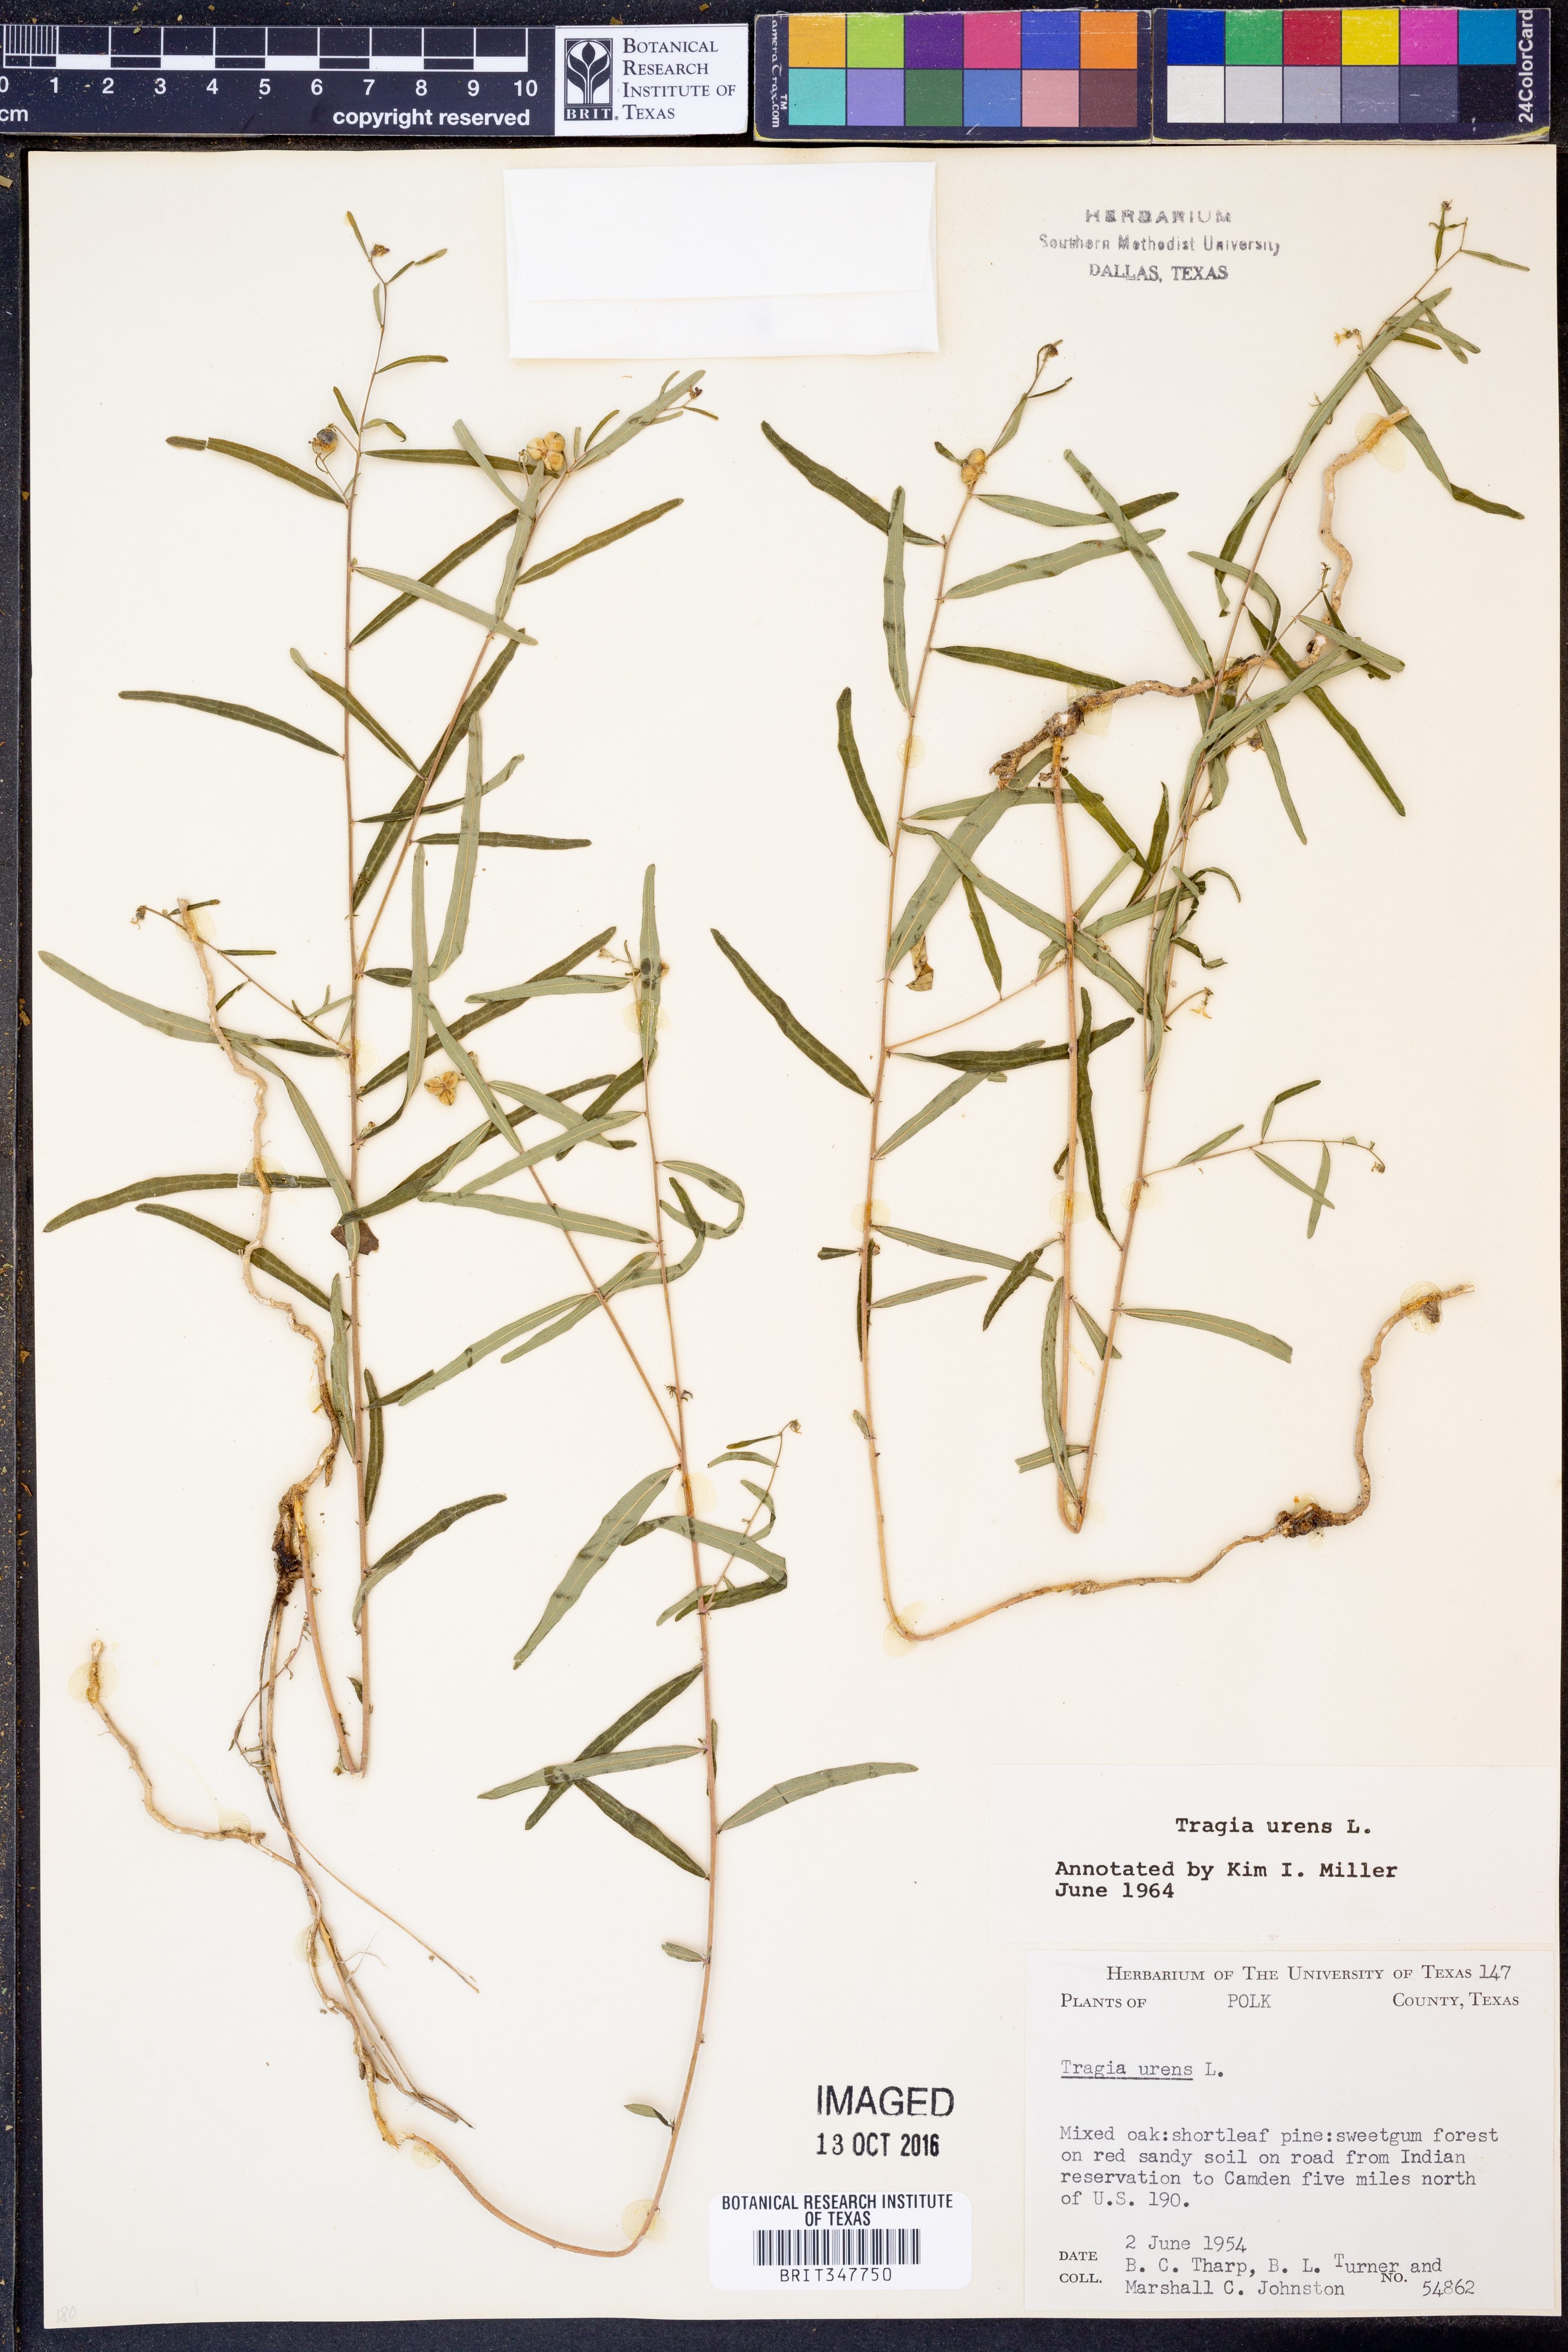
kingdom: Plantae
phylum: Tracheophyta
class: Magnoliopsida
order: Malpighiales
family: Euphorbiaceae
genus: Tragia
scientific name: Tragia urens
